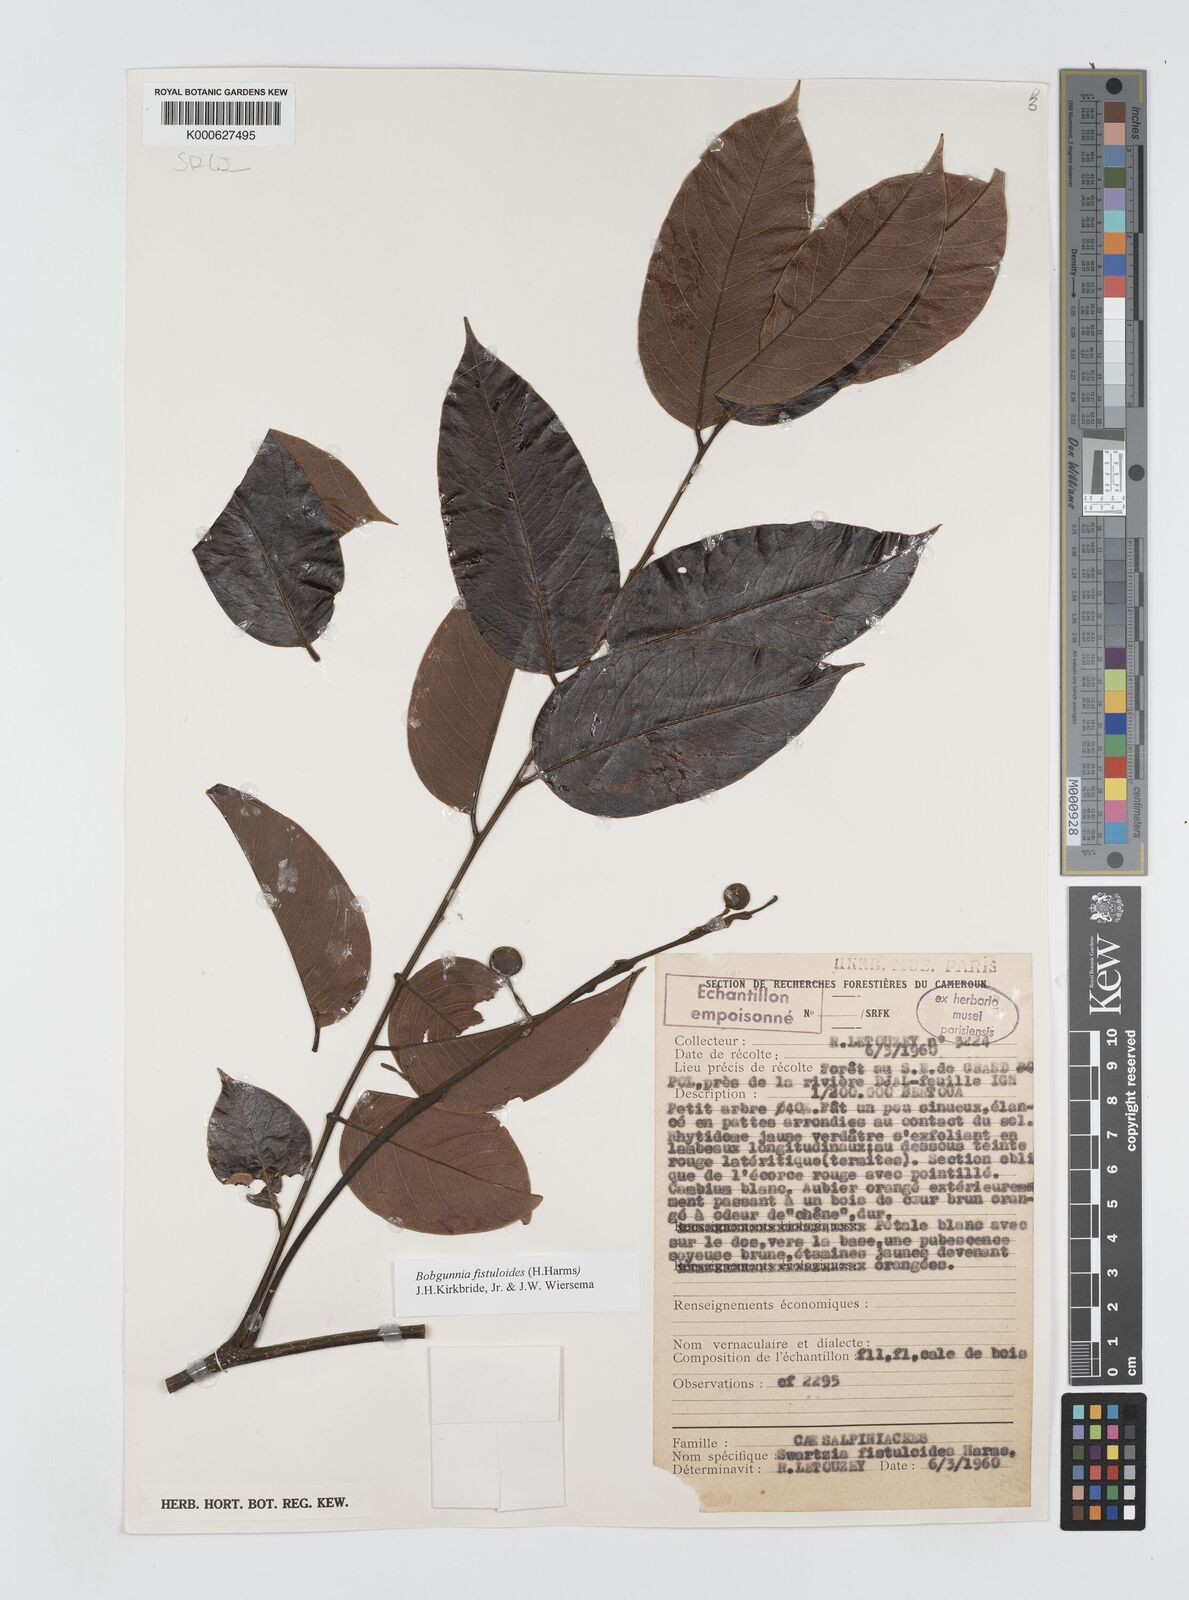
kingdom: Plantae
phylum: Tracheophyta
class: Magnoliopsida
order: Fabales
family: Fabaceae
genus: Bobgunnia
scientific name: Bobgunnia fistuloides
